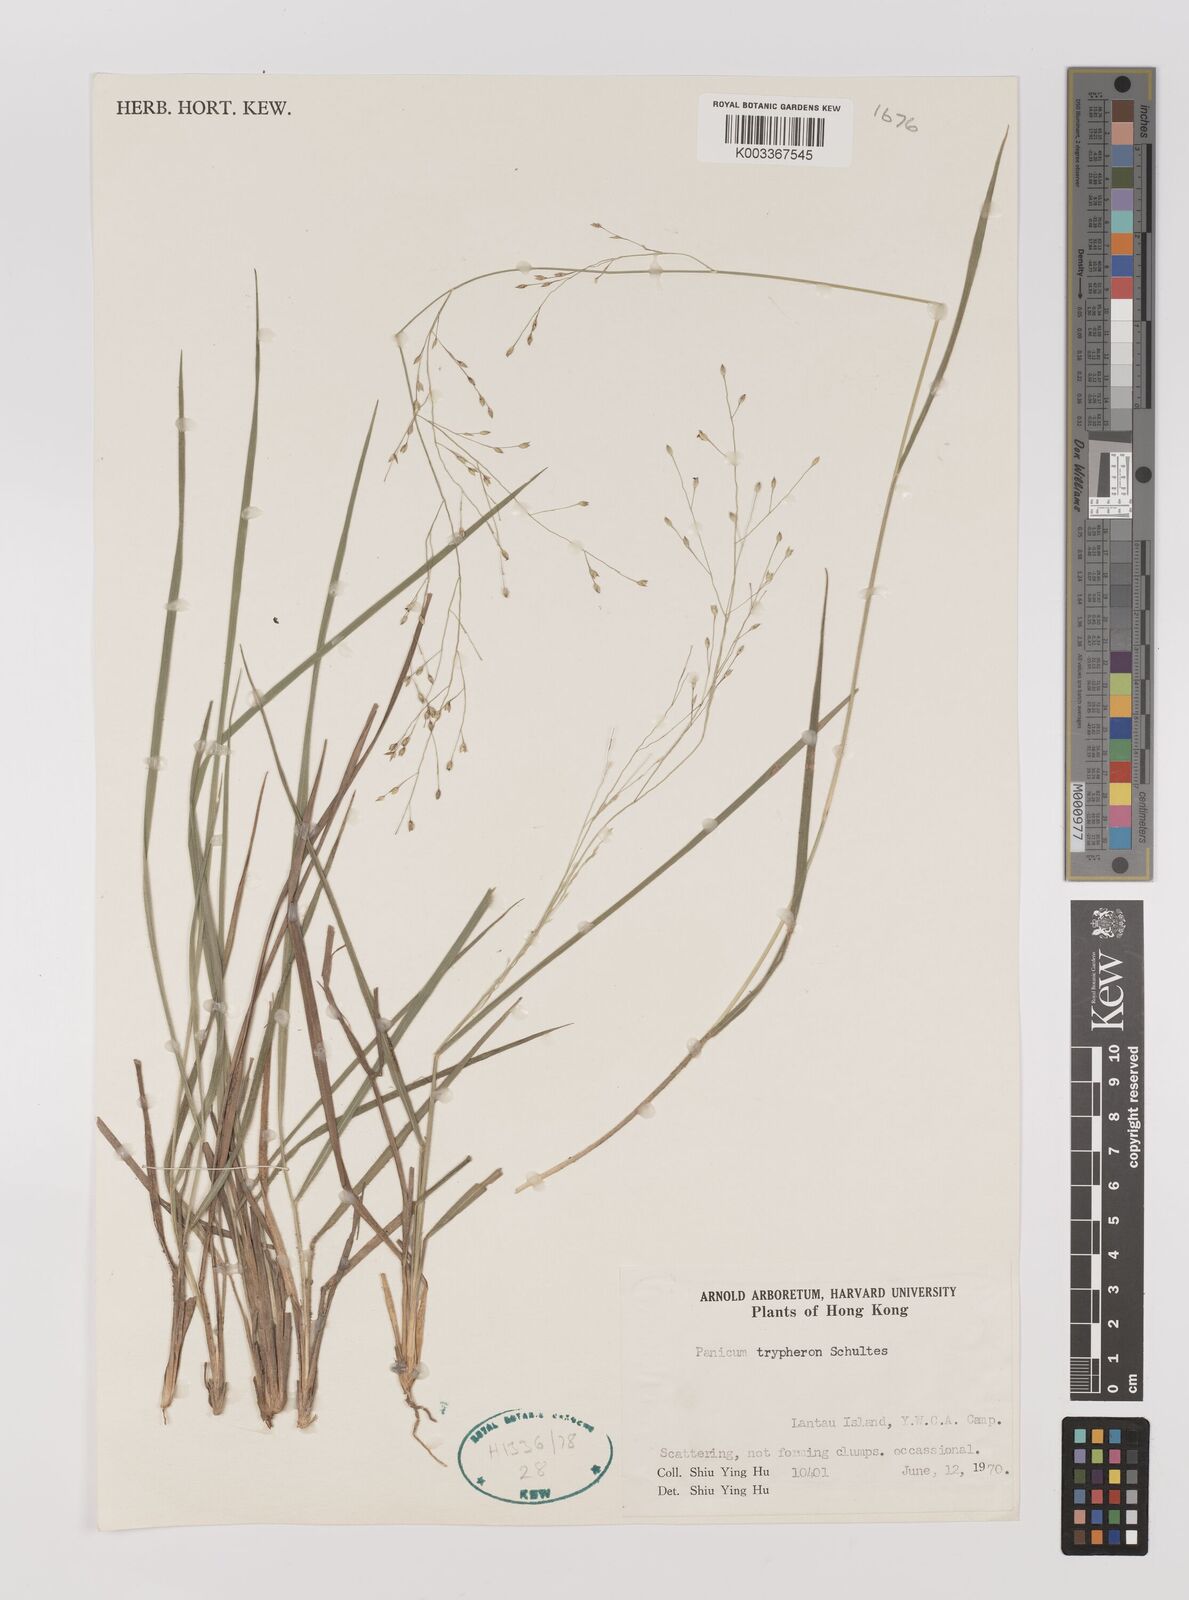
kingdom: Plantae
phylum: Tracheophyta
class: Liliopsida
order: Poales
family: Poaceae
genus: Panicum
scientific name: Panicum elegantissimum
